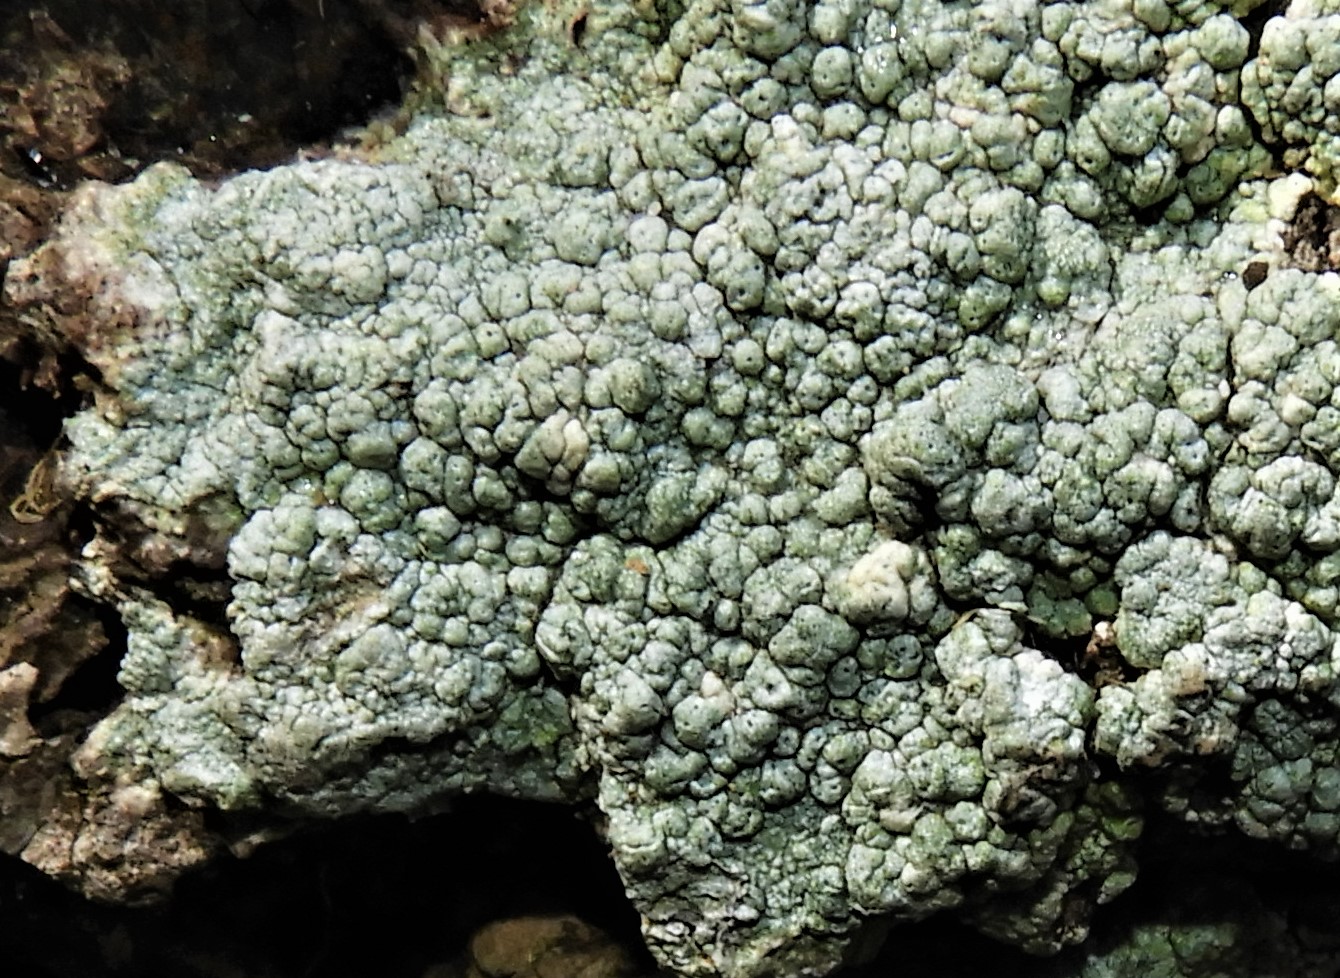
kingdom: Fungi
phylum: Ascomycota
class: Lecanoromycetes
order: Pertusariales
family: Pertusariaceae
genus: Pertusaria
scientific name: Pertusaria pertusa
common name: almindelig prikvortelav
